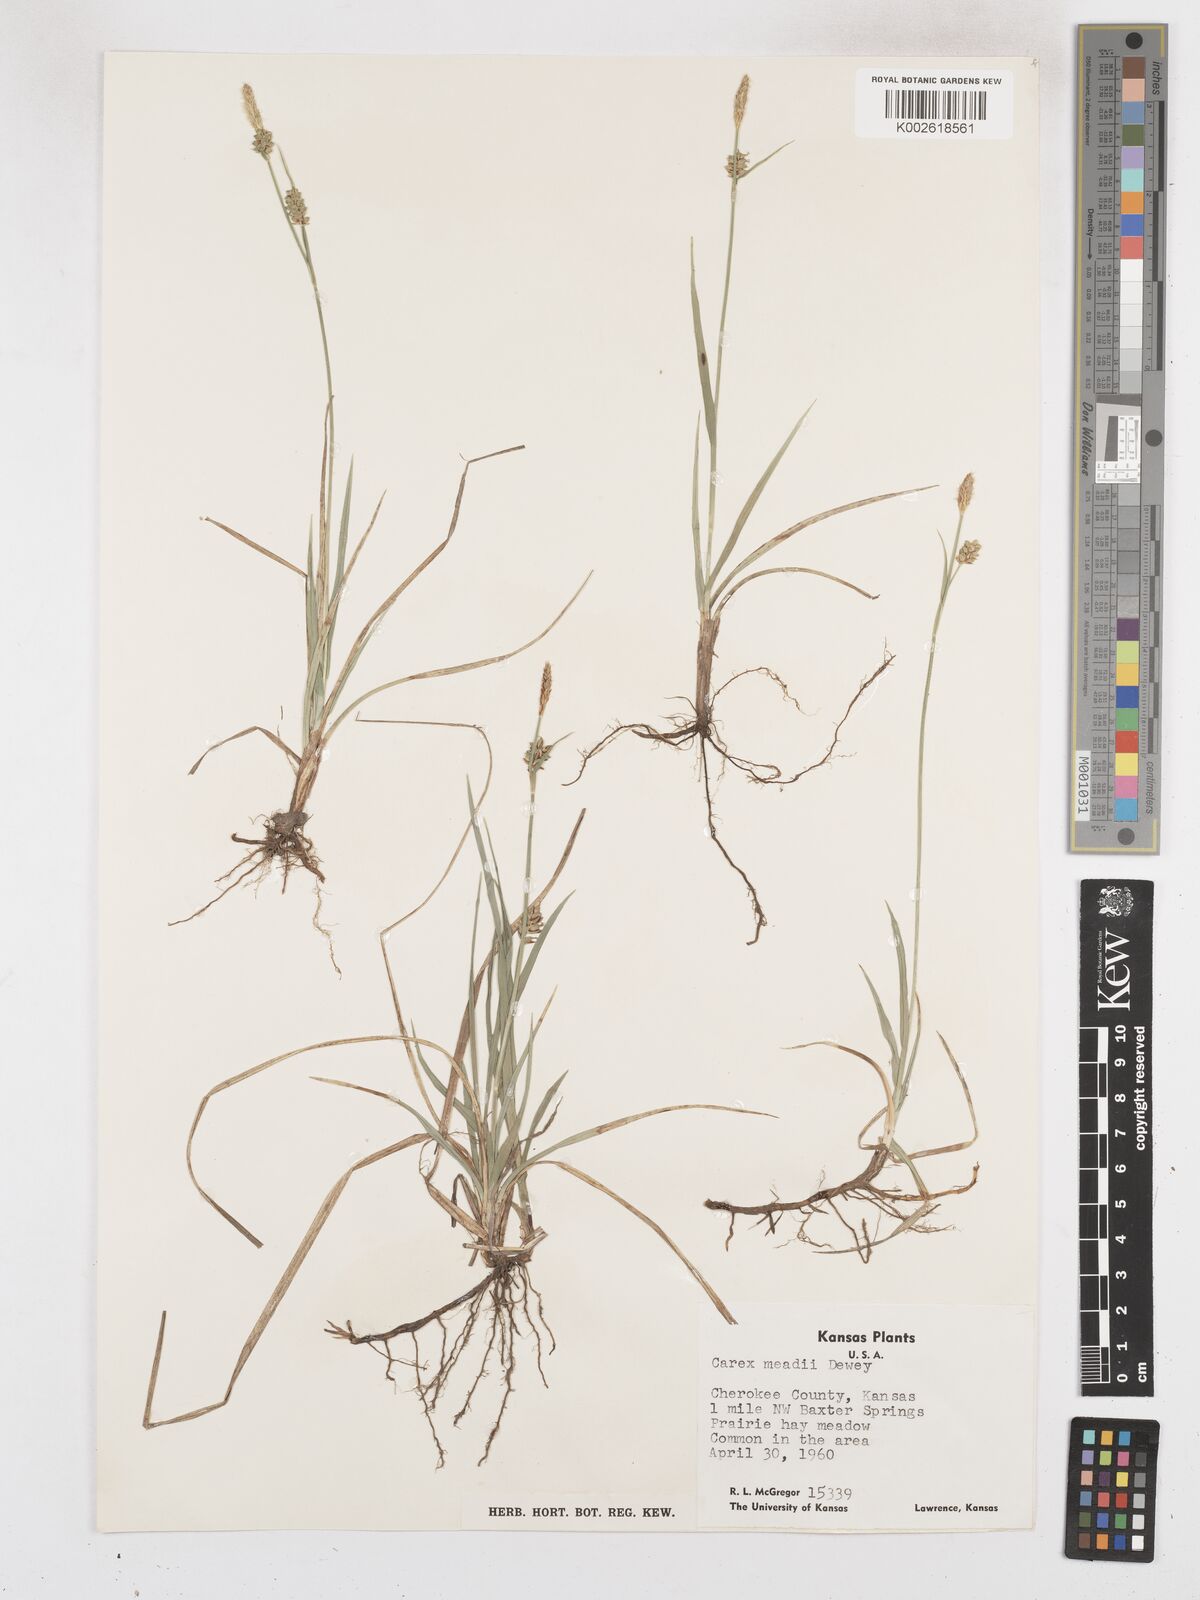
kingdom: Plantae
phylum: Tracheophyta
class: Liliopsida
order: Poales
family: Cyperaceae
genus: Carex
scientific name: Carex meadii
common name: Mead's sedge
